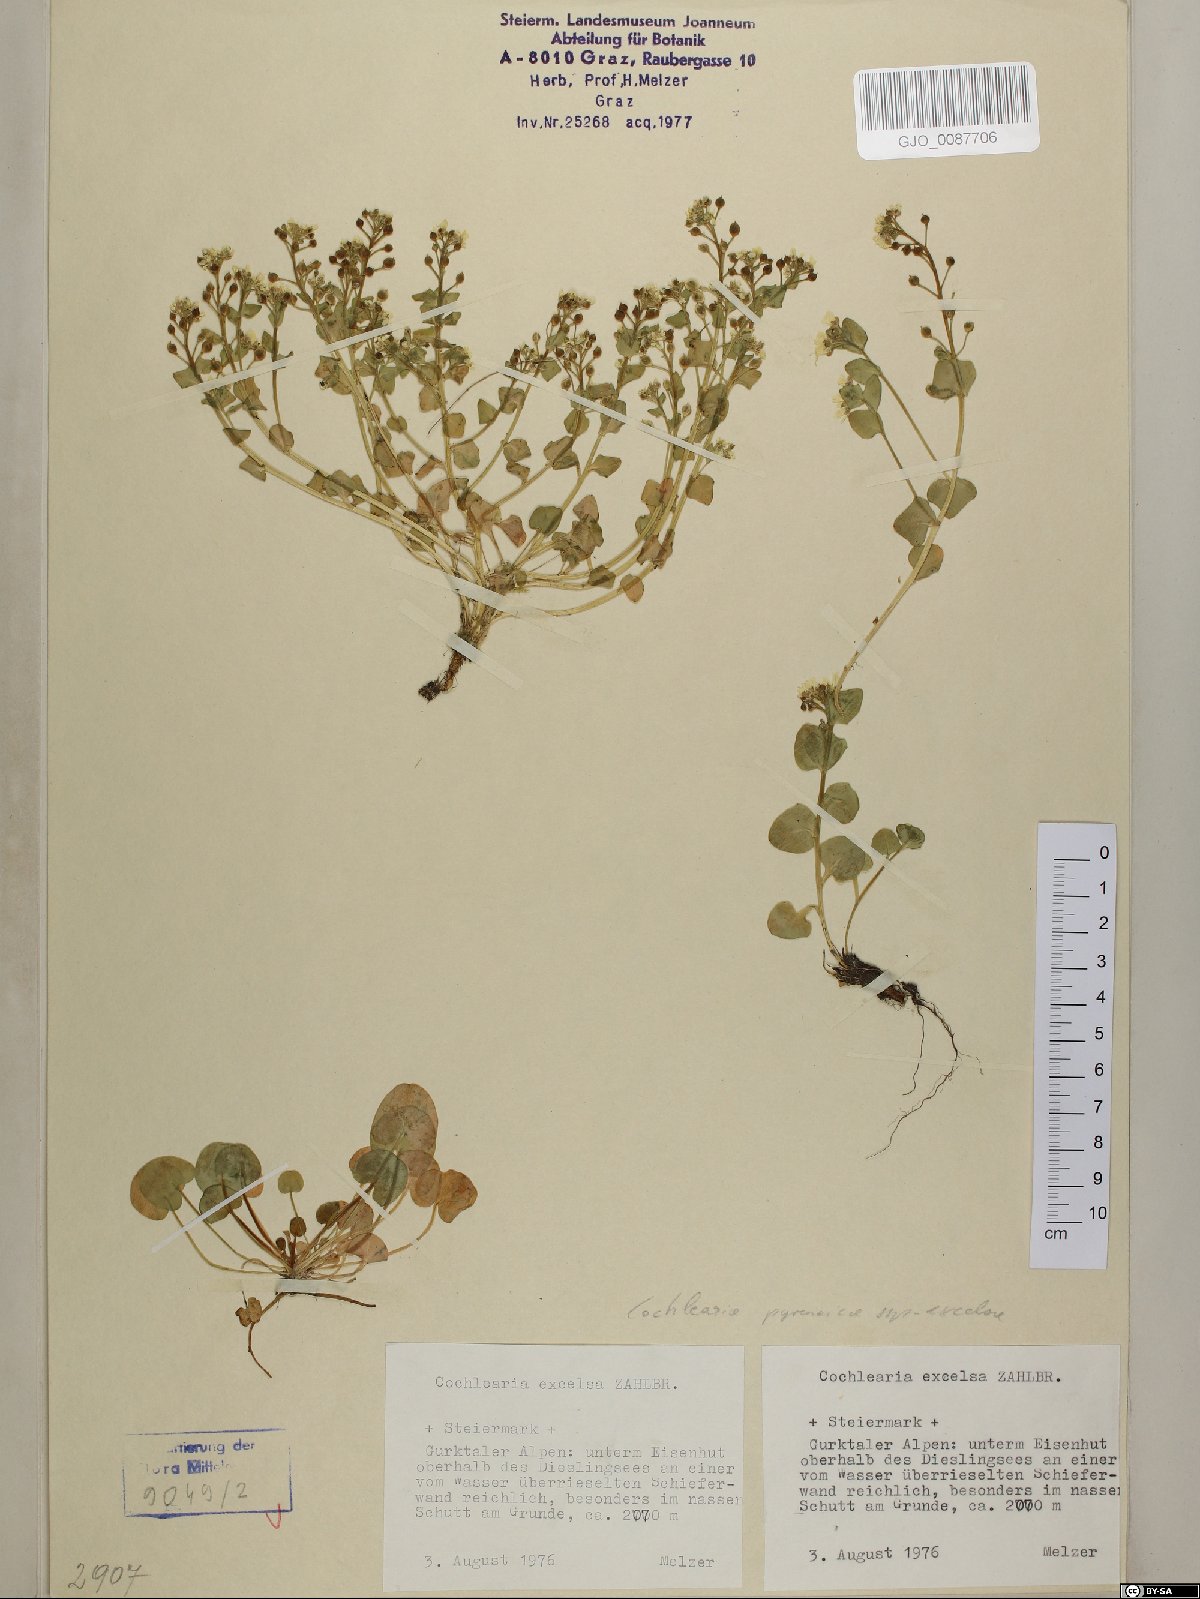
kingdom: Plantae
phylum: Tracheophyta
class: Magnoliopsida
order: Brassicales
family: Brassicaceae
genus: Cochlearia
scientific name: Cochlearia pyrenaica
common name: Upland scurvy-grass
